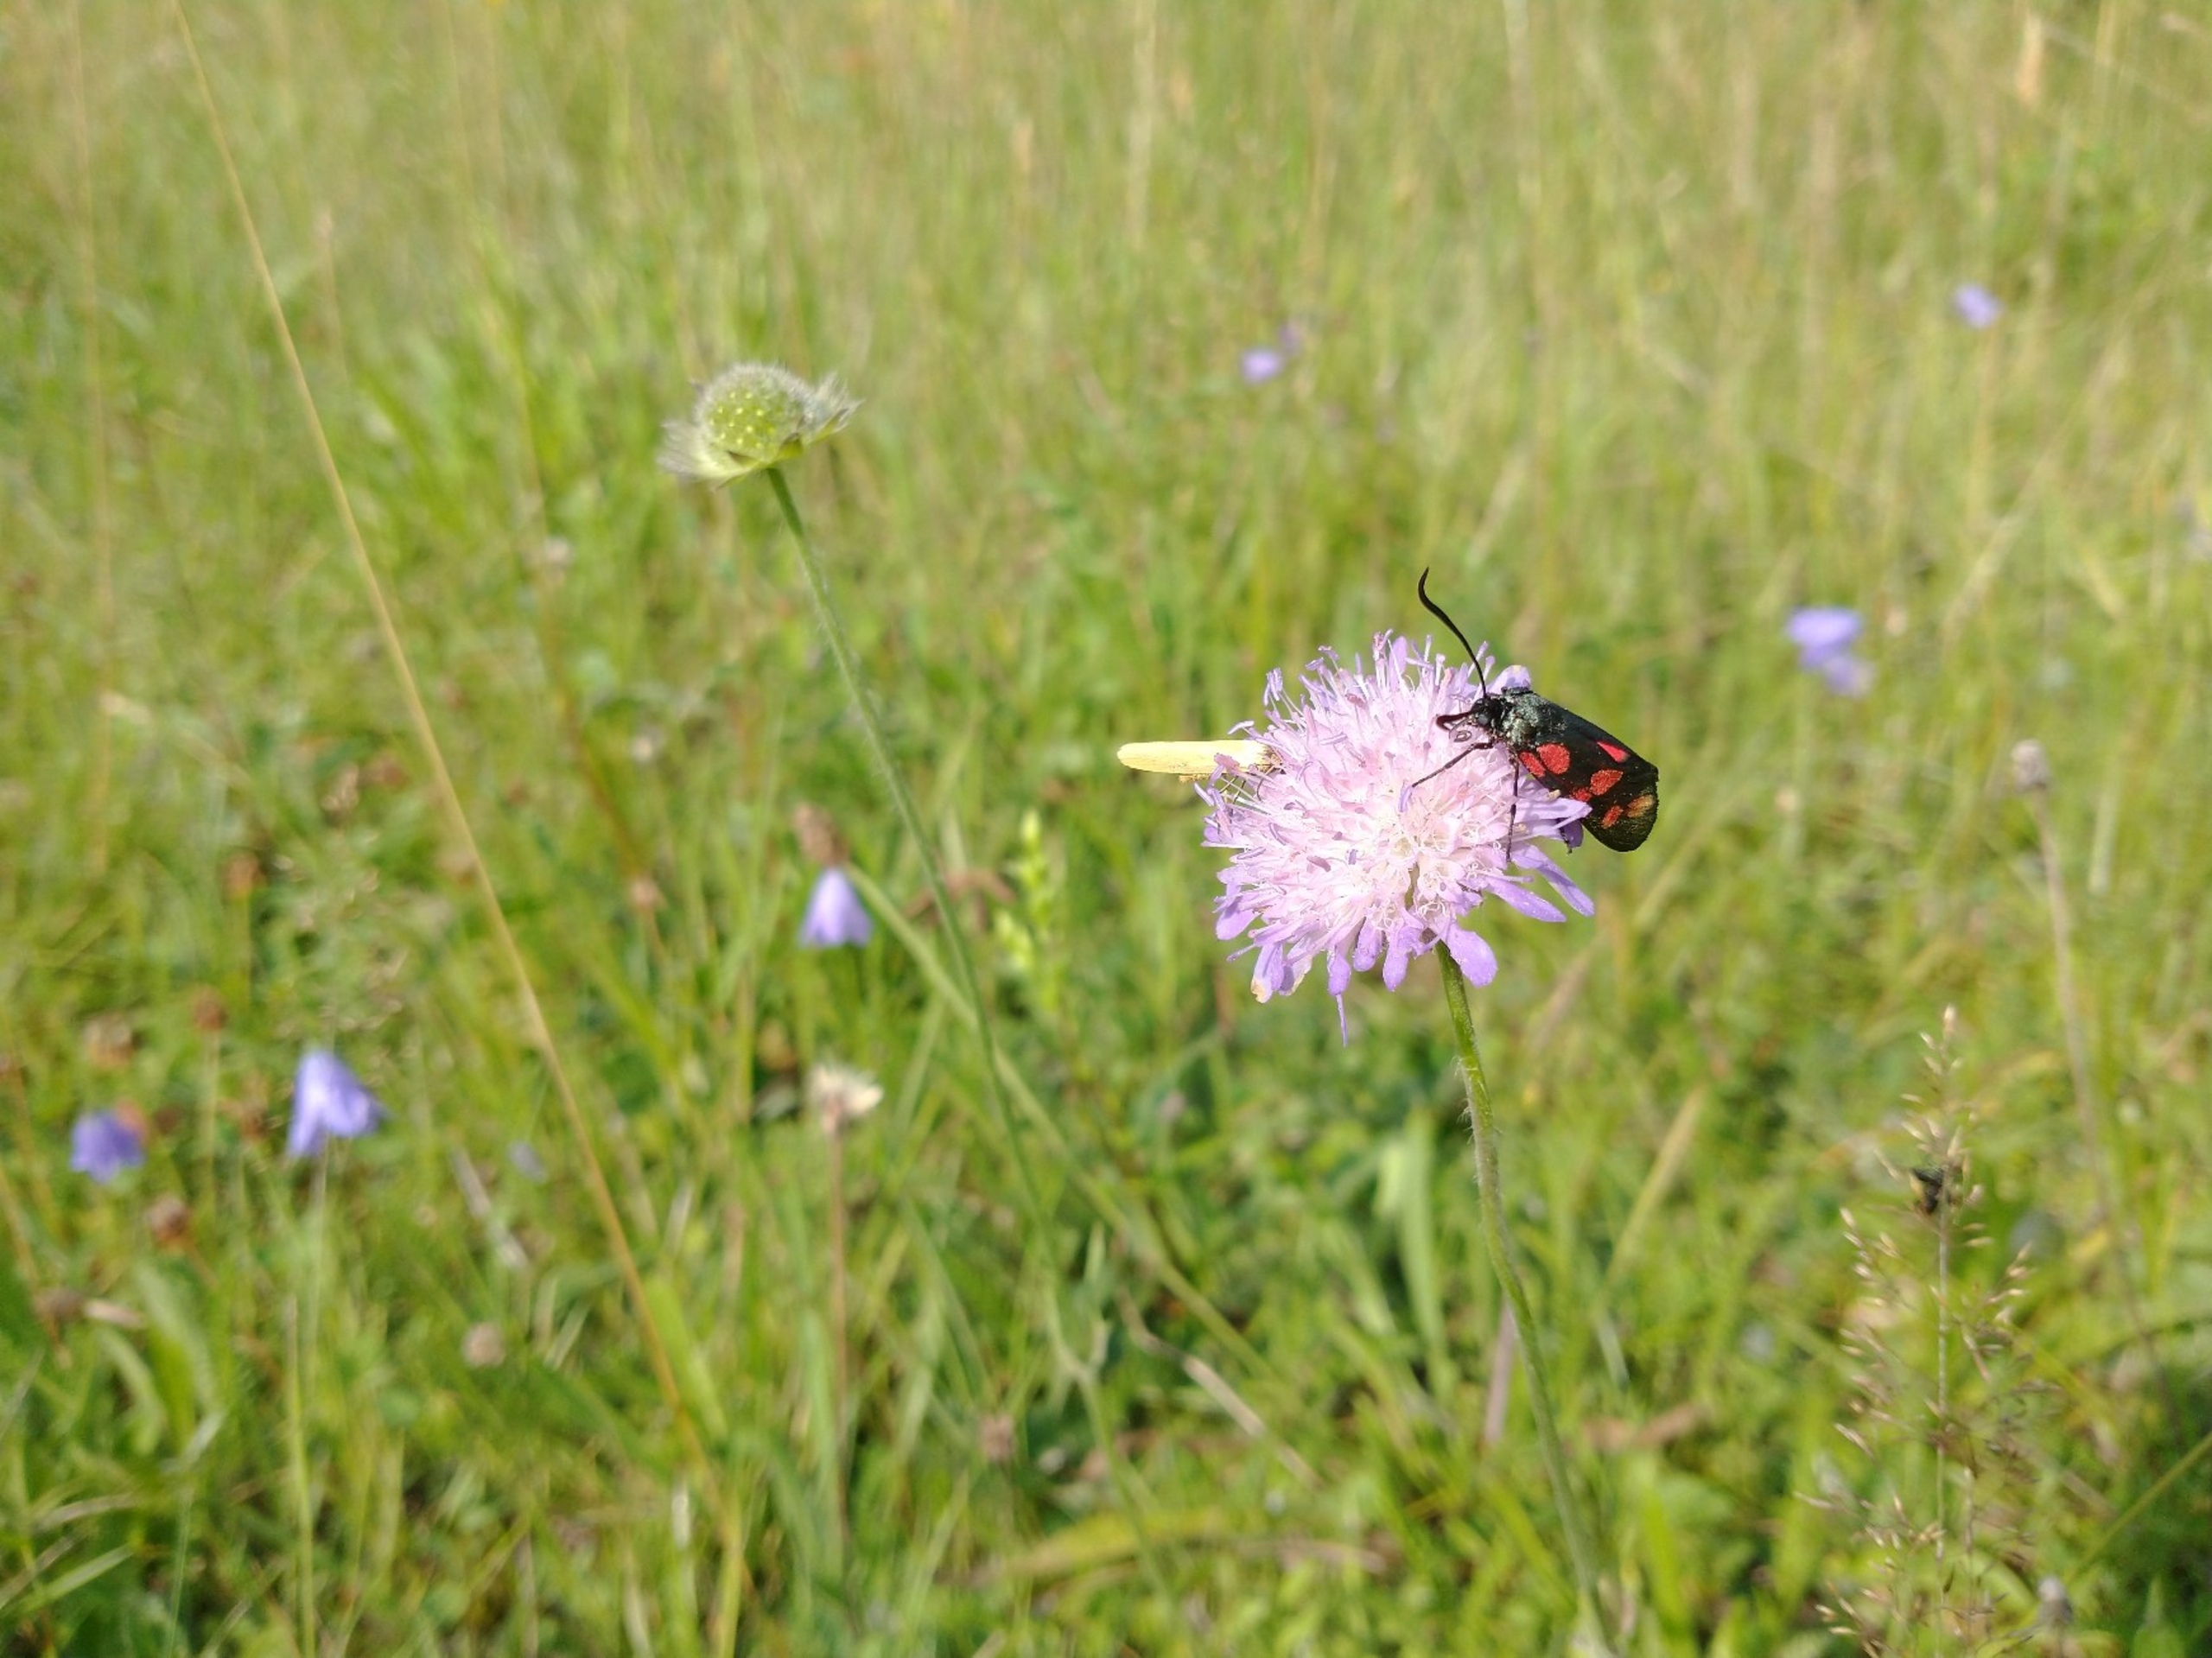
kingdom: Animalia
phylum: Arthropoda
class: Insecta
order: Lepidoptera
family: Zygaenidae
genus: Zygaena
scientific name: Zygaena filipendulae
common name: Seksplettet køllesværmer
